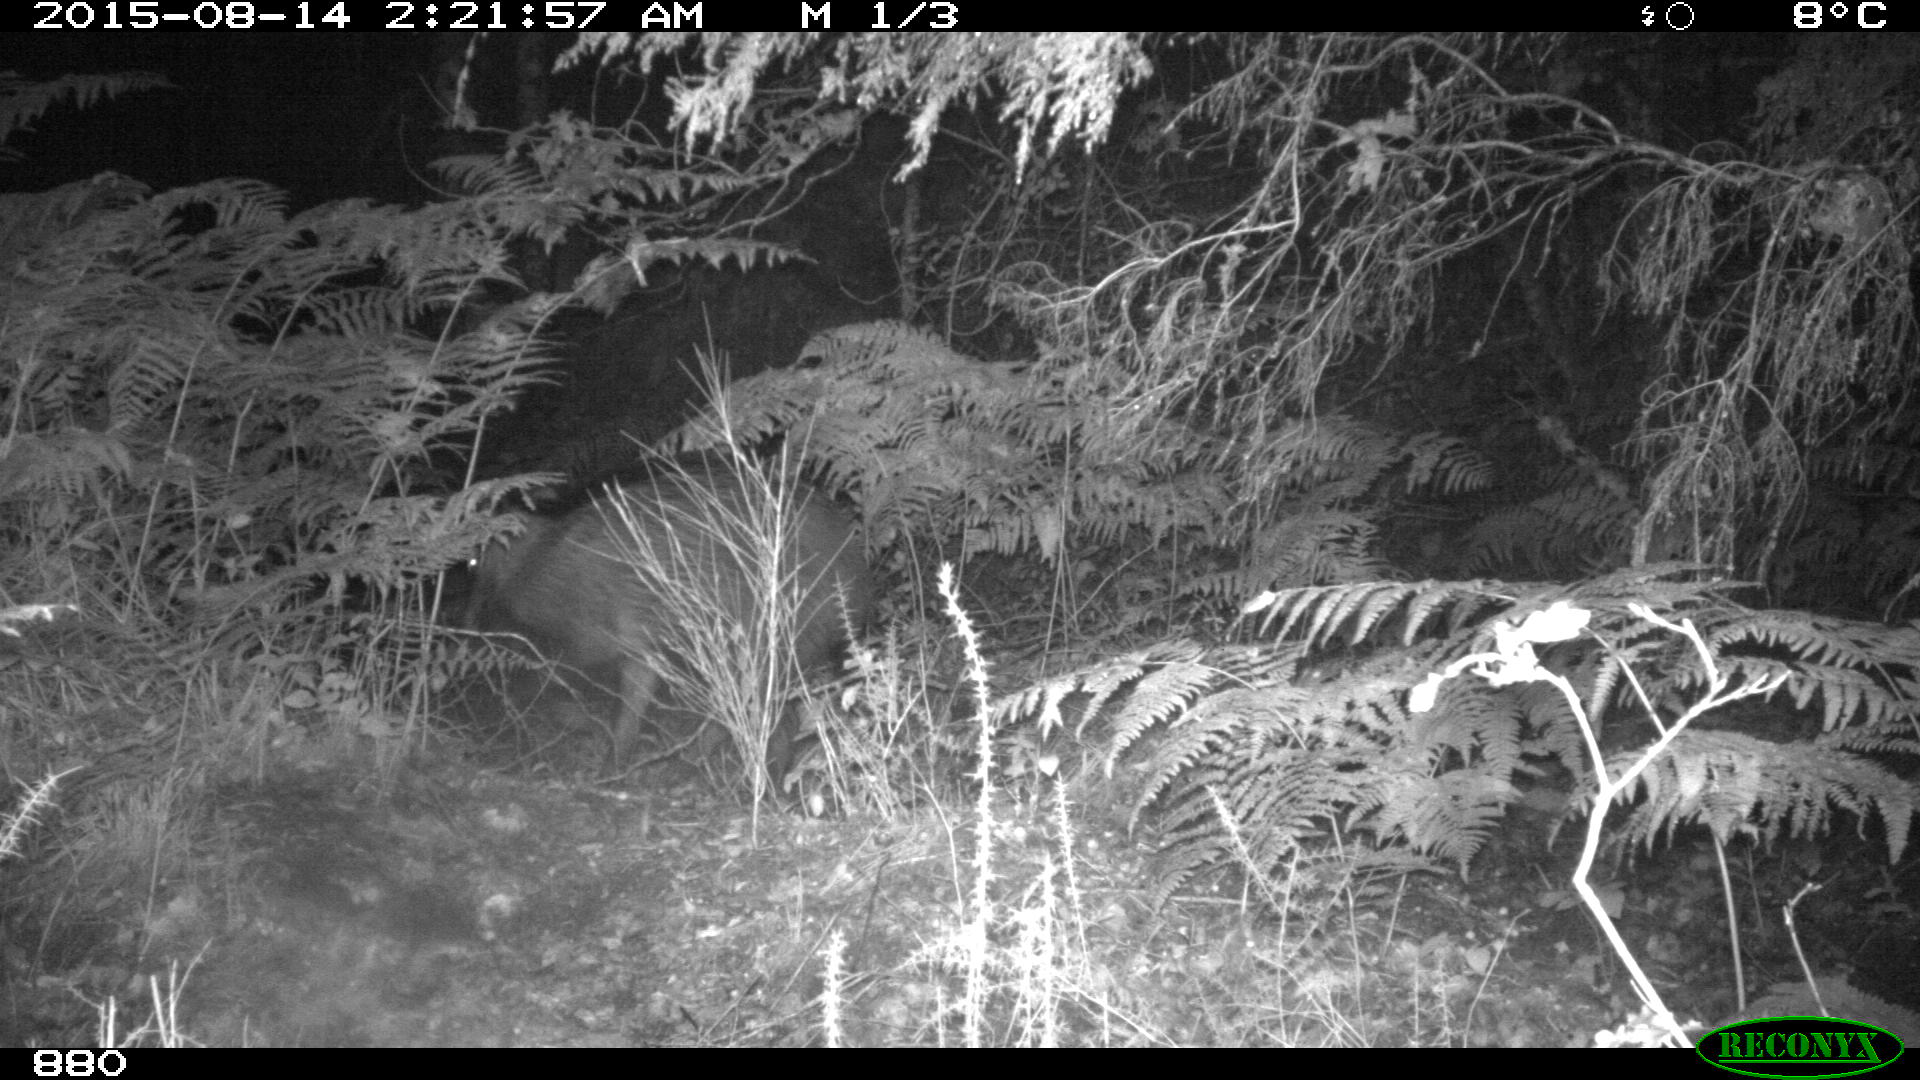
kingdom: Animalia
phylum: Chordata
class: Mammalia
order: Artiodactyla
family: Suidae
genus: Sus
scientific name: Sus scrofa
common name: Wild boar
